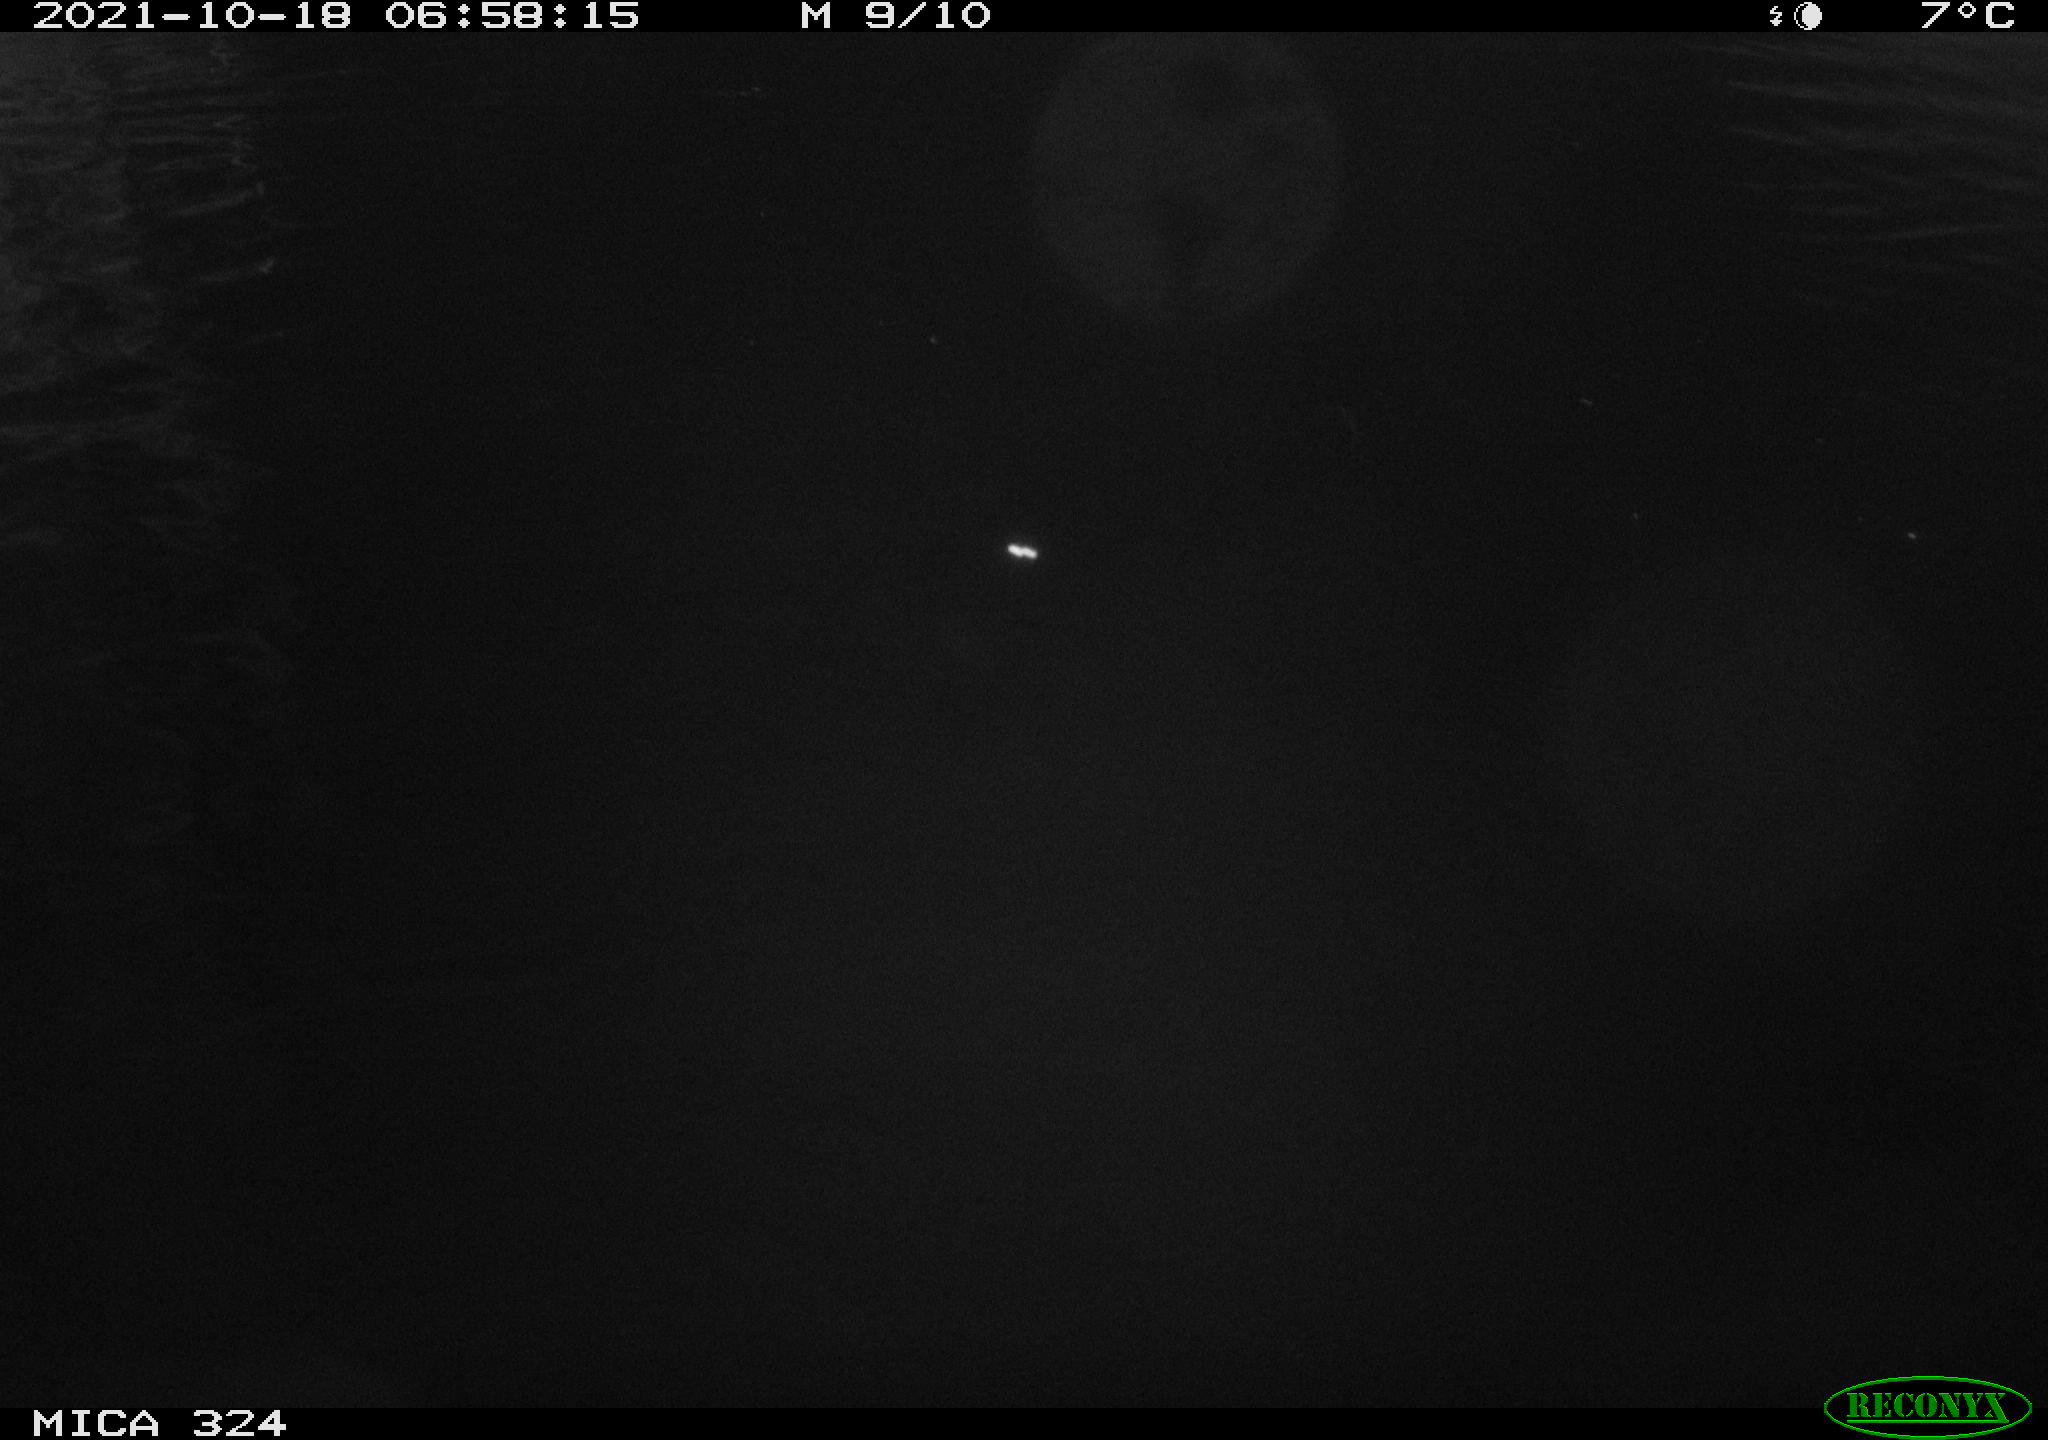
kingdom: Animalia
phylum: Chordata
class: Mammalia
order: Rodentia
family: Cricetidae
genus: Ondatra
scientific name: Ondatra zibethicus
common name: Muskrat
